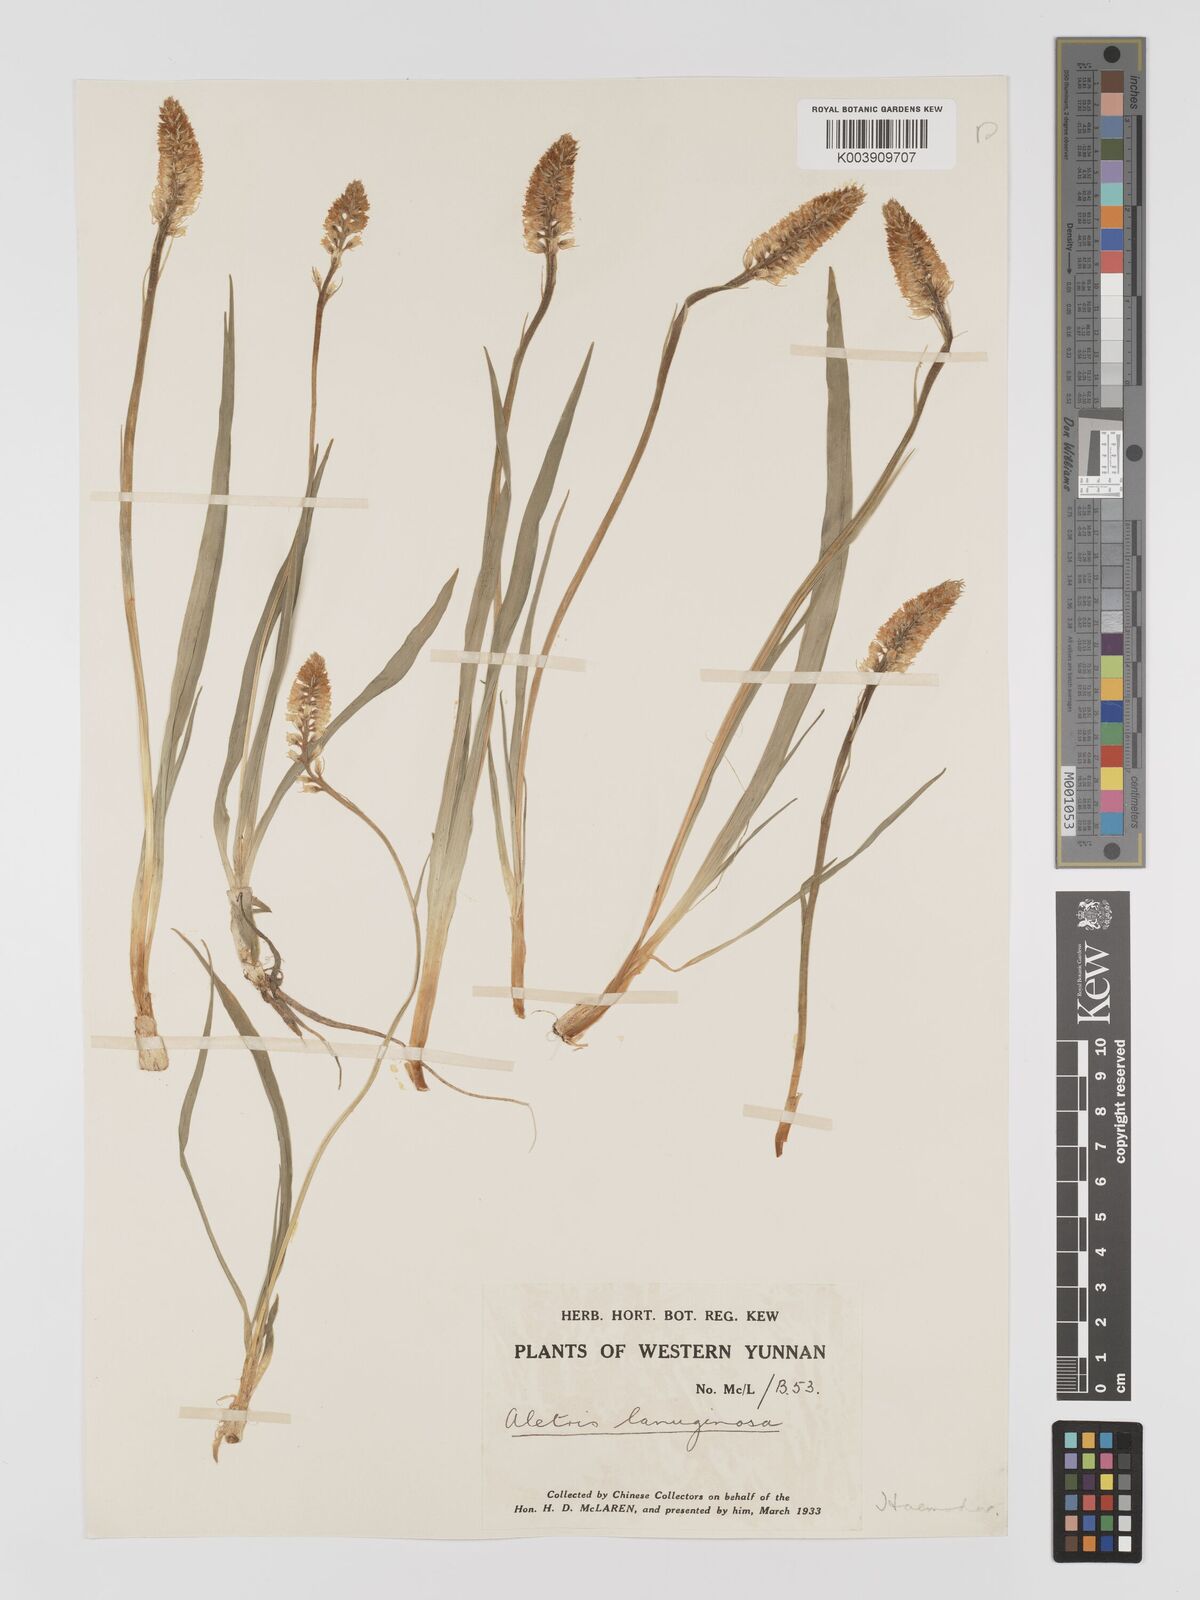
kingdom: Plantae
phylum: Tracheophyta
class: Liliopsida
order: Dioscoreales
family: Nartheciaceae
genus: Aletris
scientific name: Aletris pauciflora
